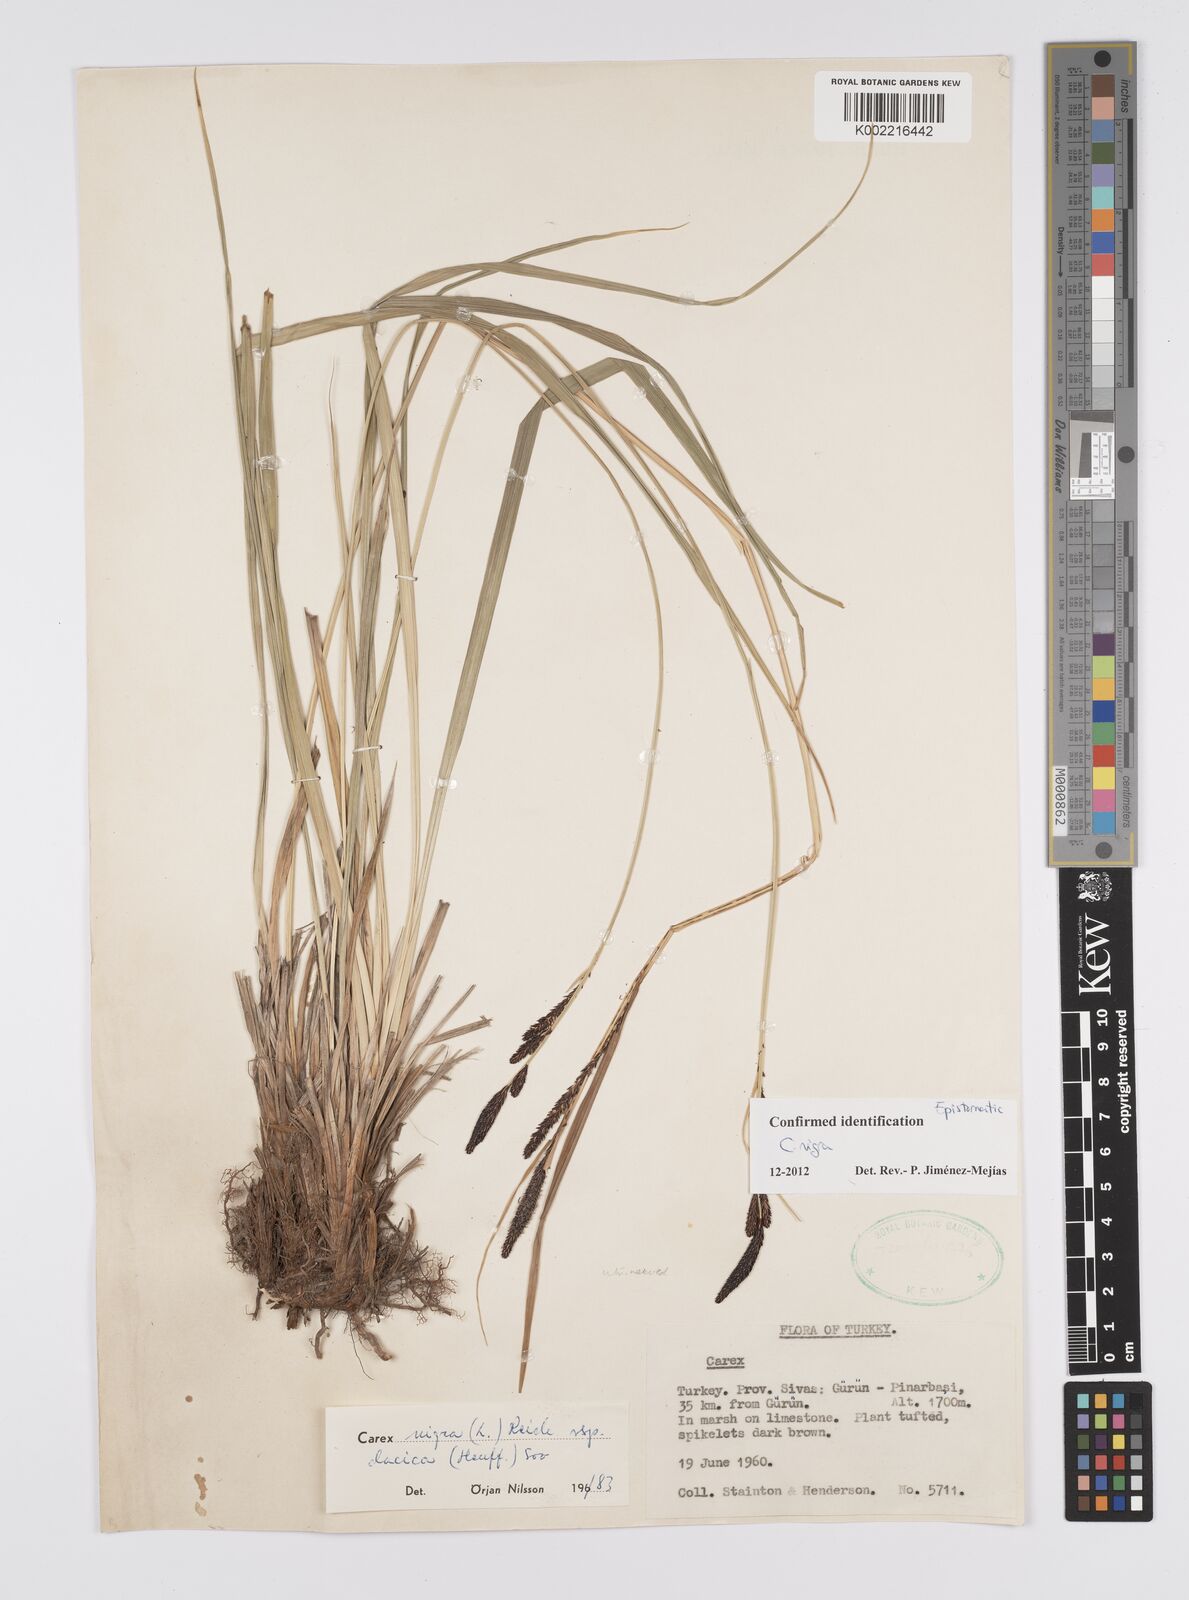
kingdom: Plantae
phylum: Tracheophyta
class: Liliopsida
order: Poales
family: Cyperaceae
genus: Carex
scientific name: Carex nigra
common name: Common sedge
